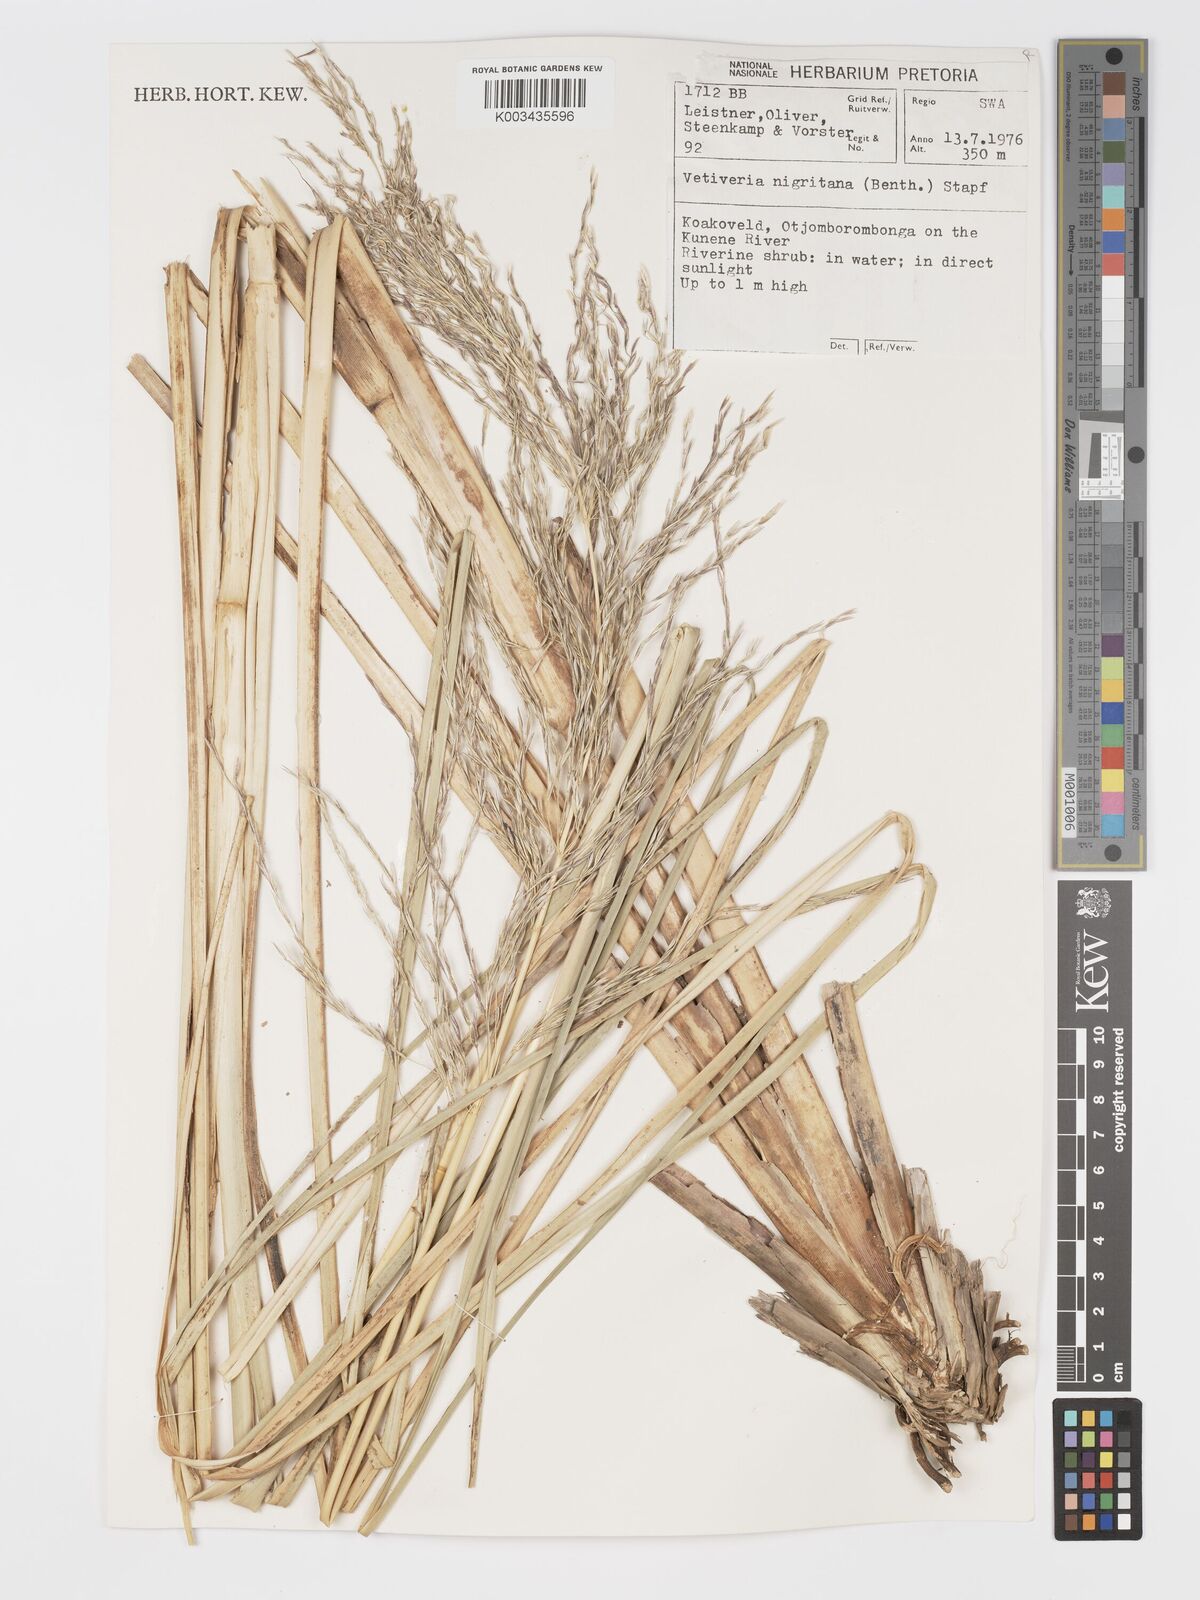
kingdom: Plantae
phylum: Tracheophyta
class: Liliopsida
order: Poales
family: Poaceae
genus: Chrysopogon
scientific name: Chrysopogon nigritanus
